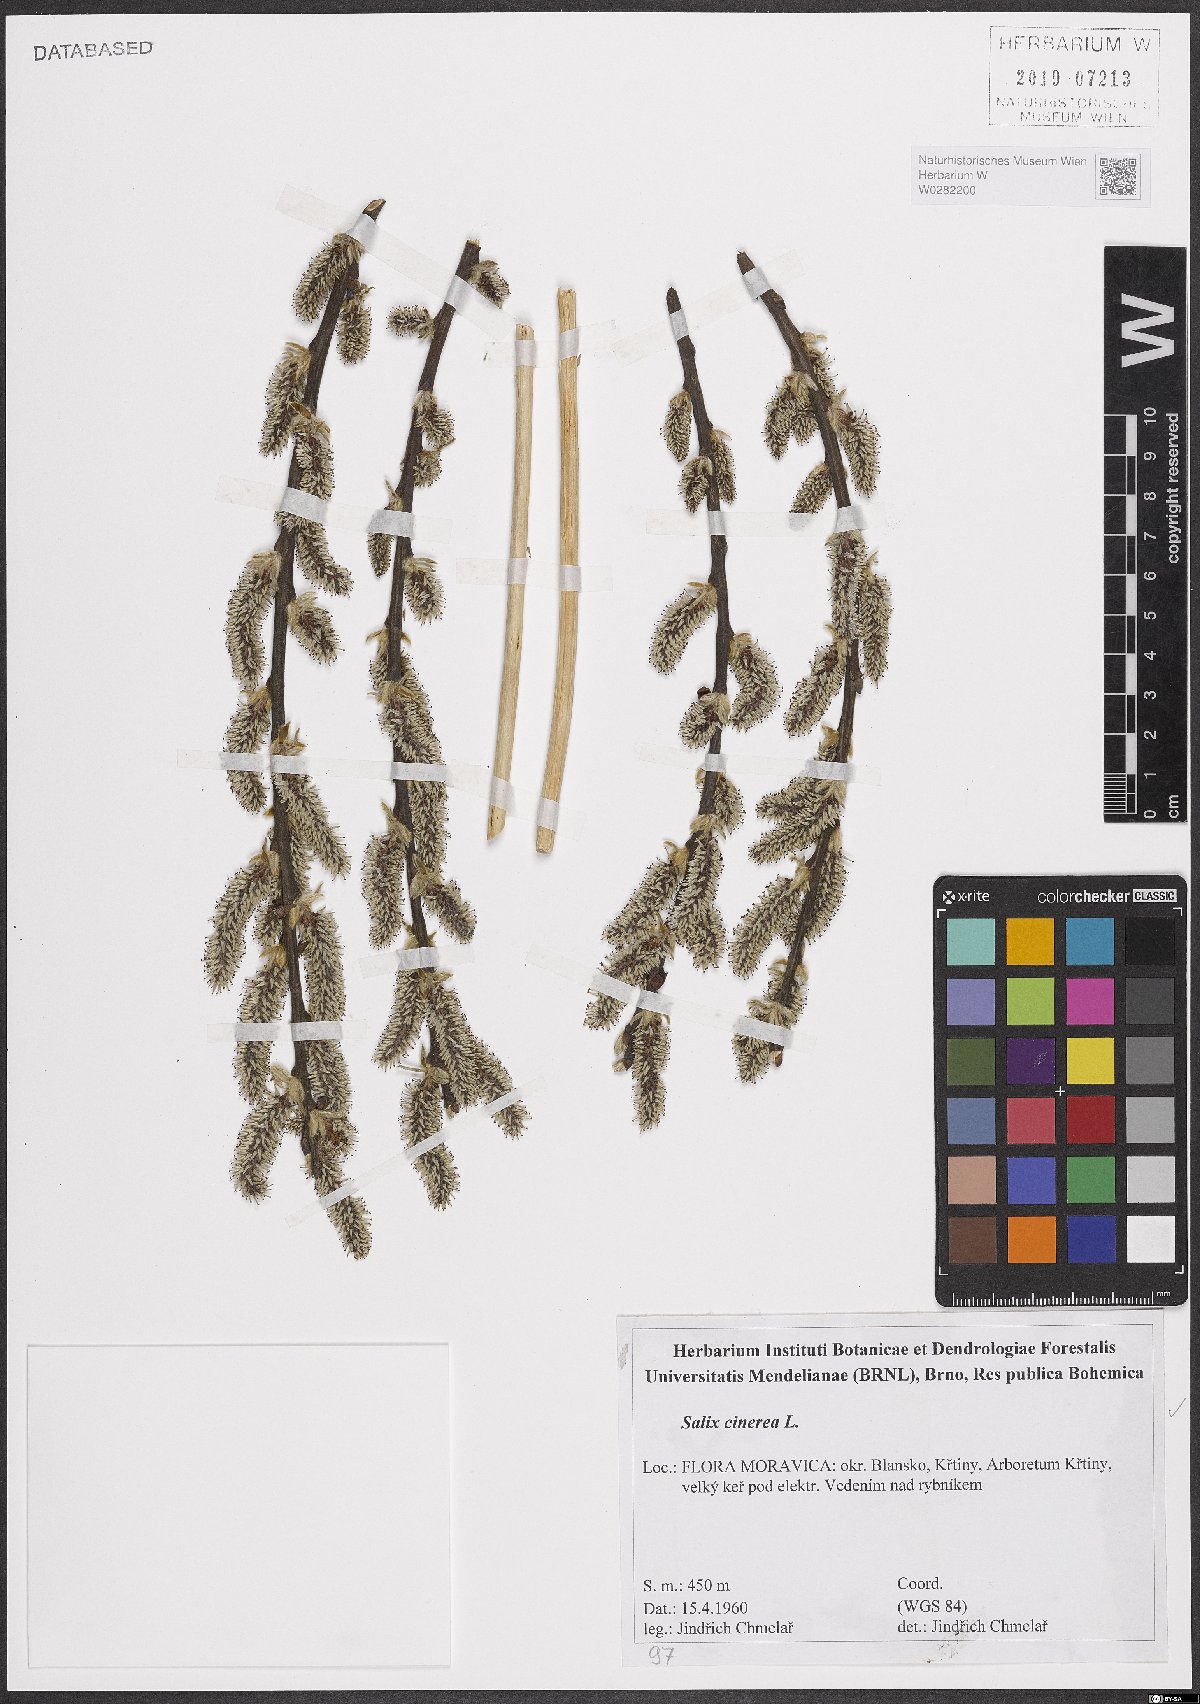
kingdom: Plantae
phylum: Tracheophyta
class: Magnoliopsida
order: Malpighiales
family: Salicaceae
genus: Salix
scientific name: Salix cinerea
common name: Common sallow
